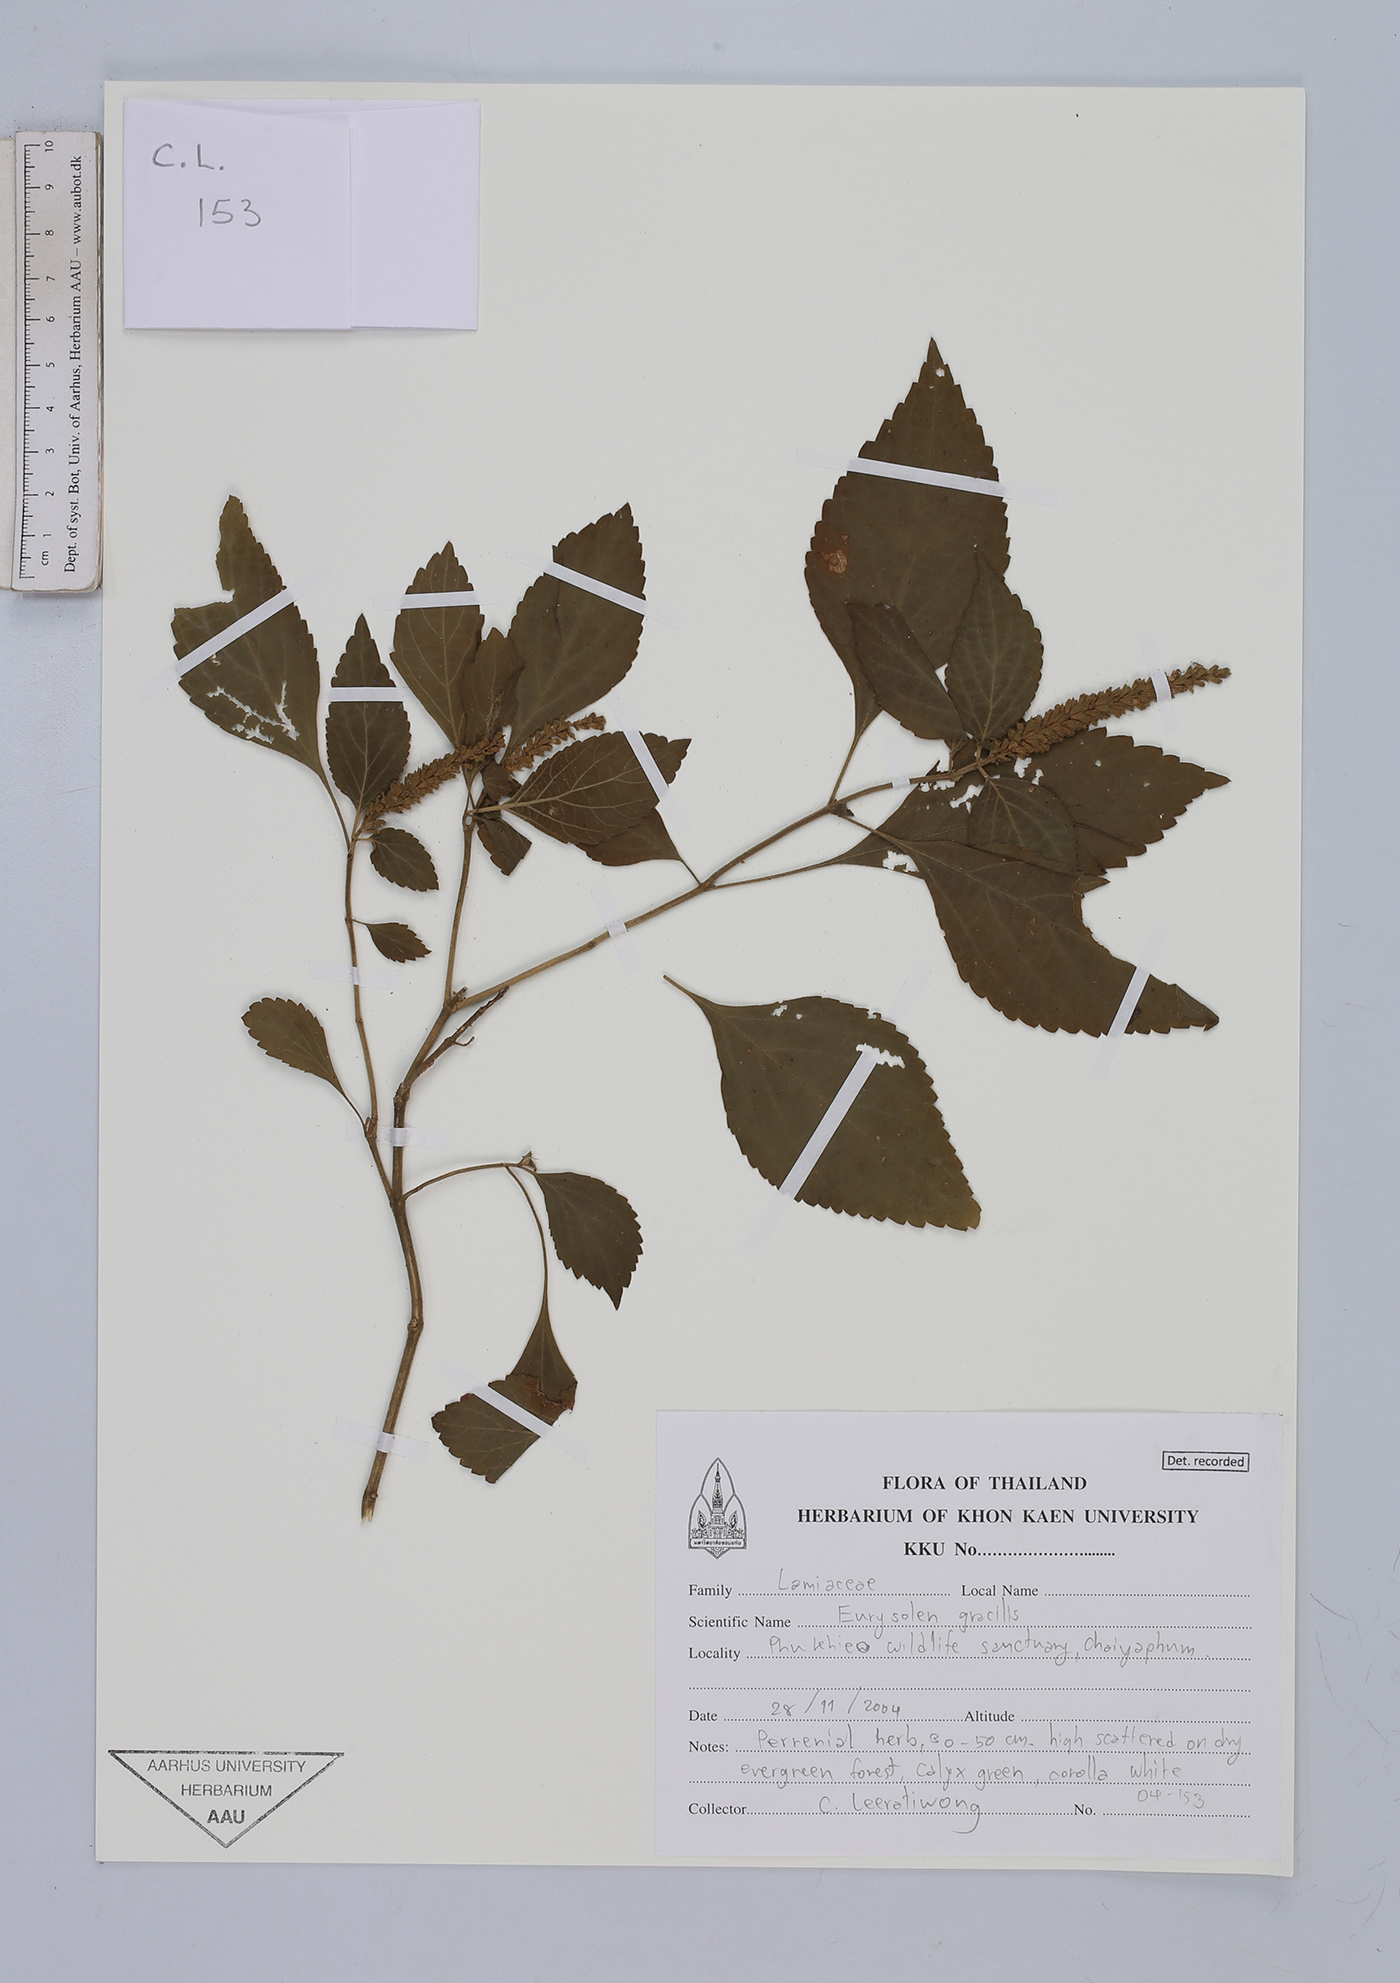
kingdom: Plantae
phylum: Tracheophyta
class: Magnoliopsida
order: Lamiales
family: Lamiaceae
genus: Eurysolen
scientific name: Eurysolen gracilis
